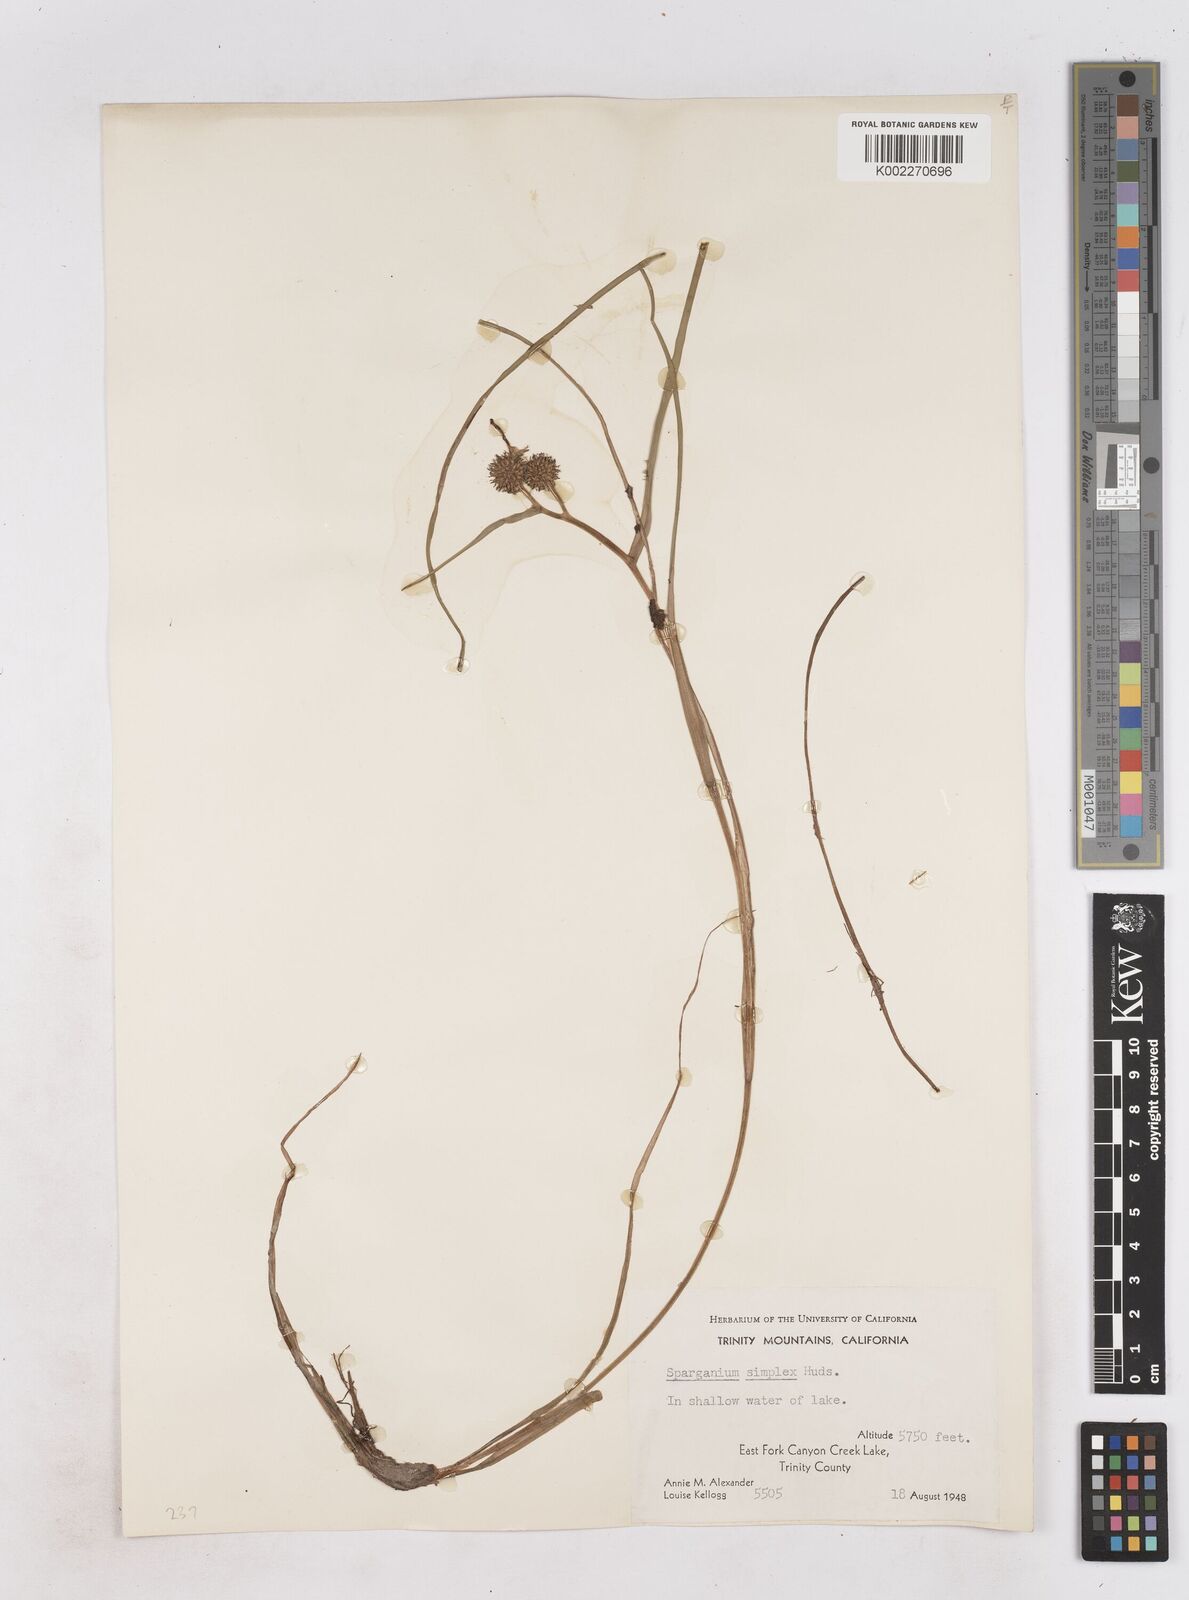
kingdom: Plantae
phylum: Tracheophyta
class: Liliopsida
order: Poales
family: Typhaceae
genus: Sparganium
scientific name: Sparganium emersum
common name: Unbranched bur-reed
